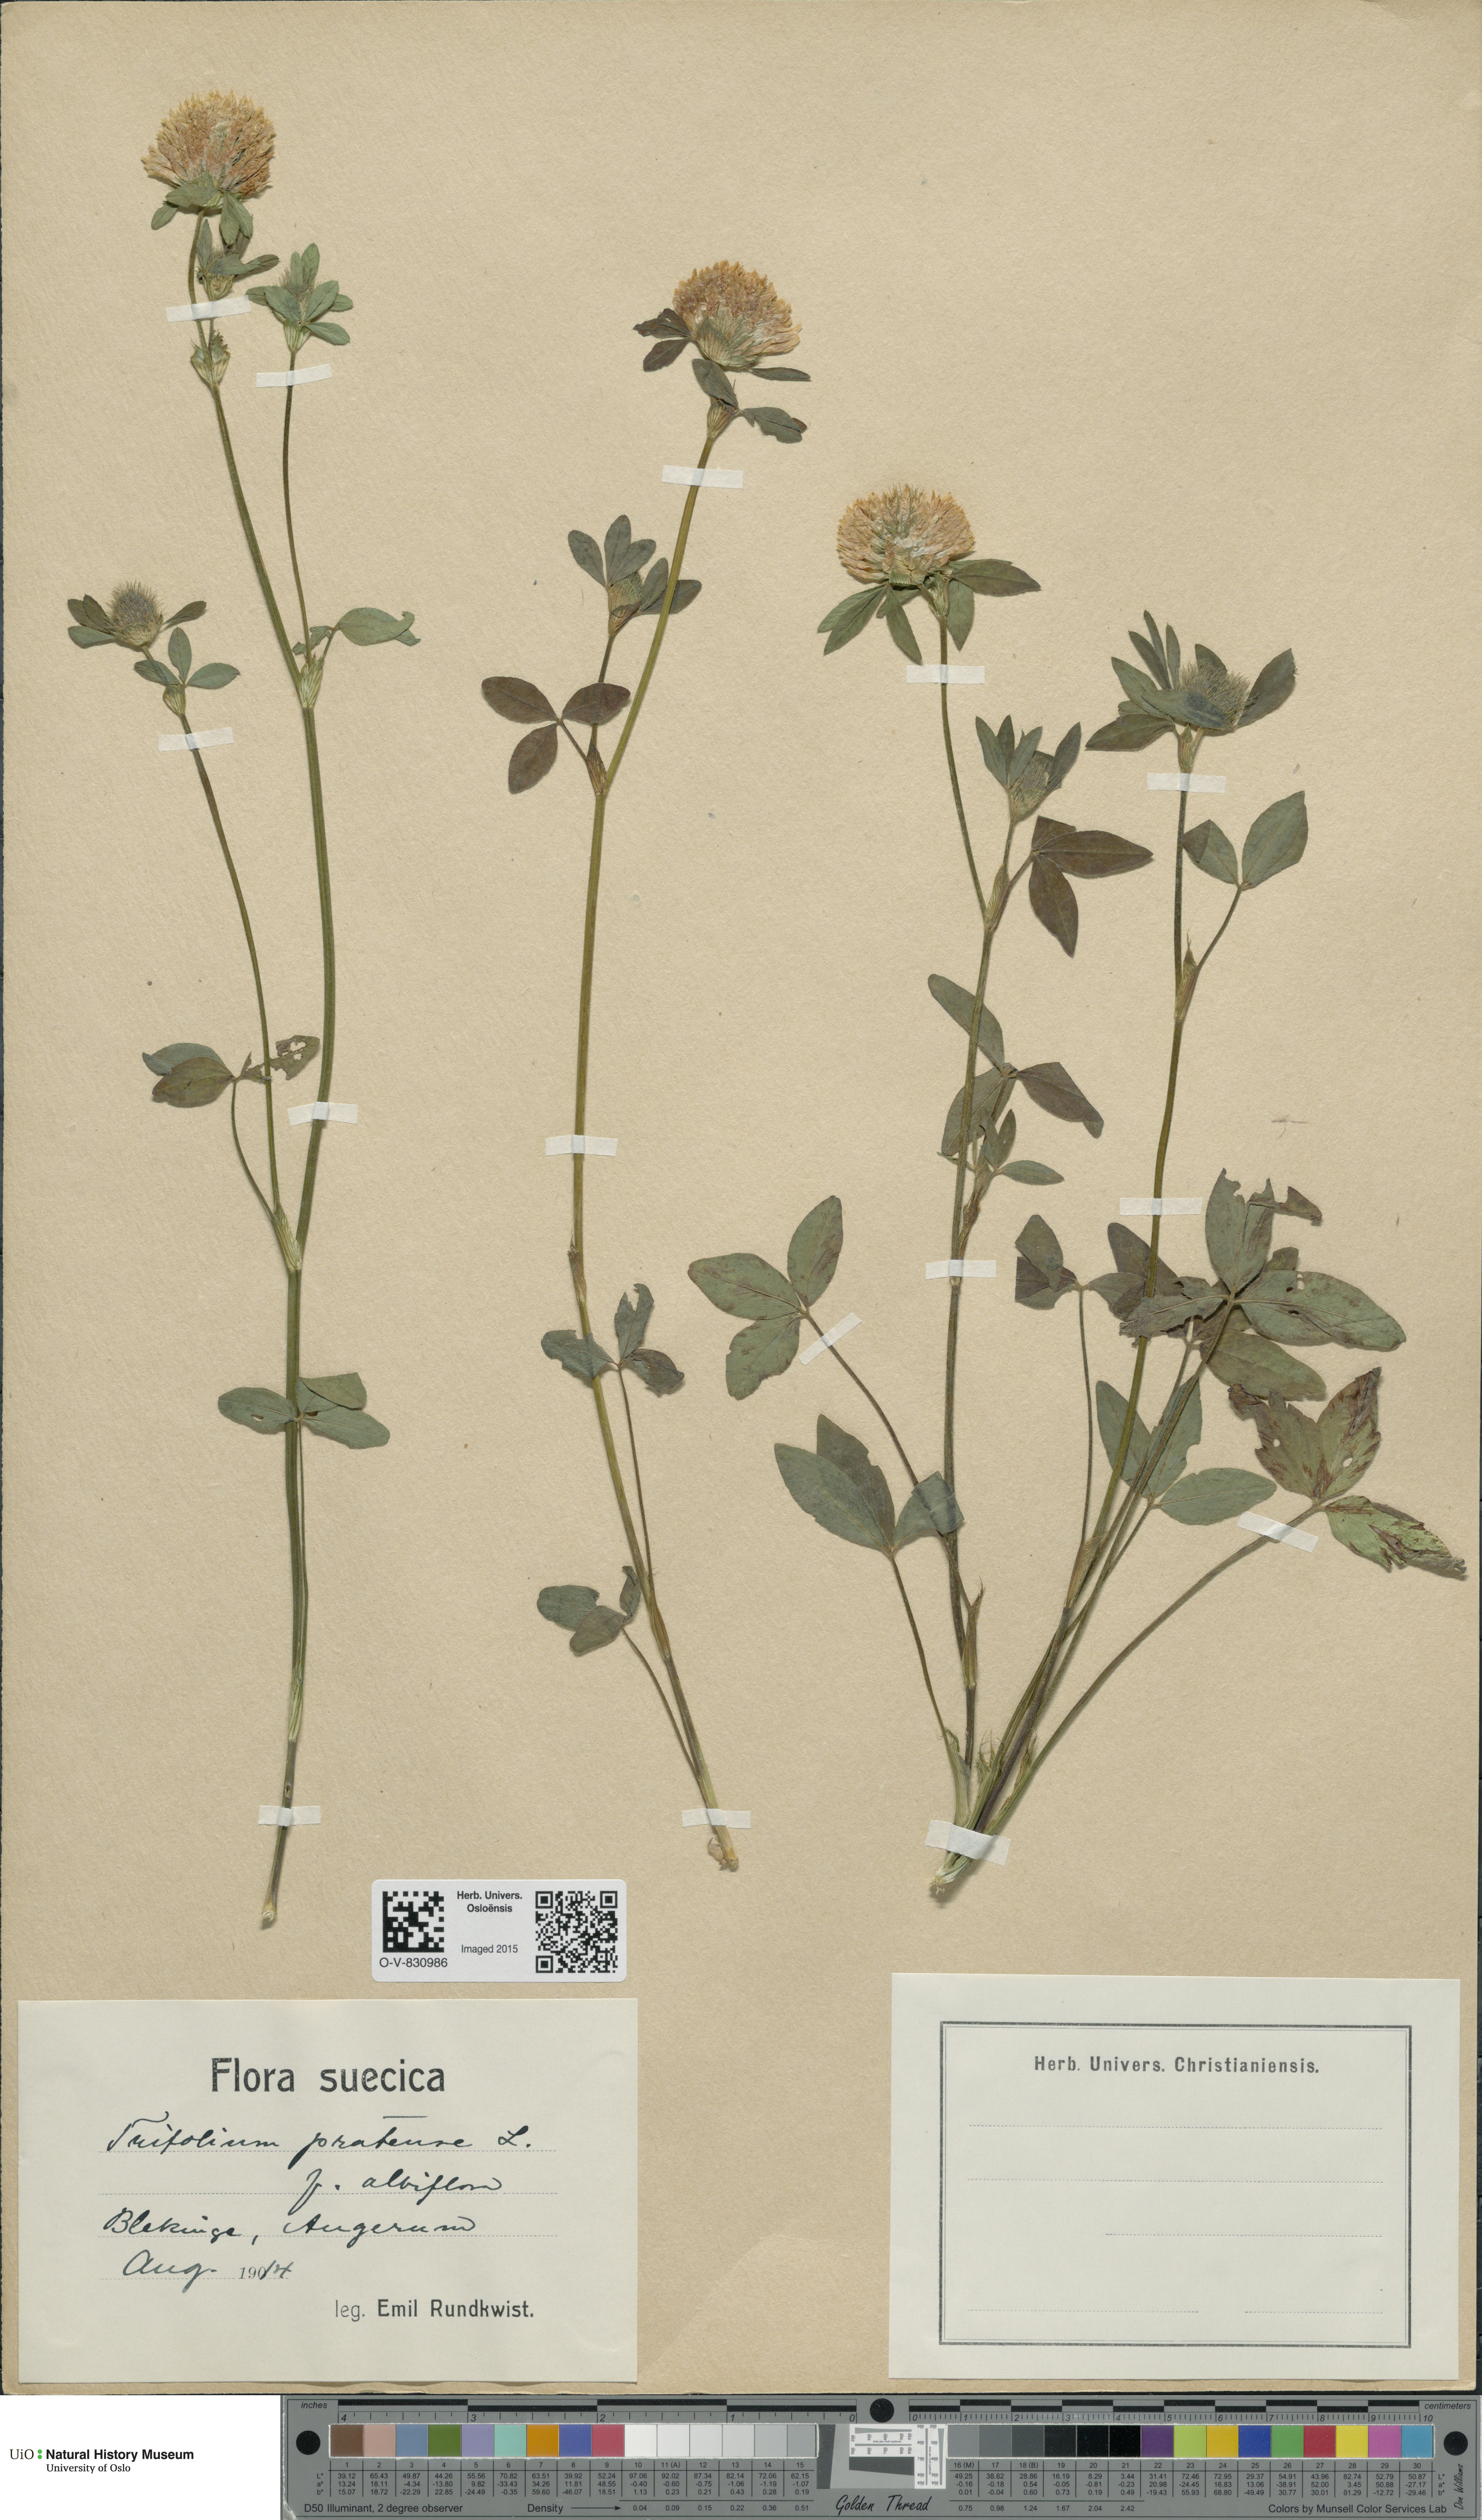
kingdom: Plantae
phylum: Tracheophyta
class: Magnoliopsida
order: Fabales
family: Fabaceae
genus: Trifolium
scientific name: Trifolium pratense
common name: Red clover
